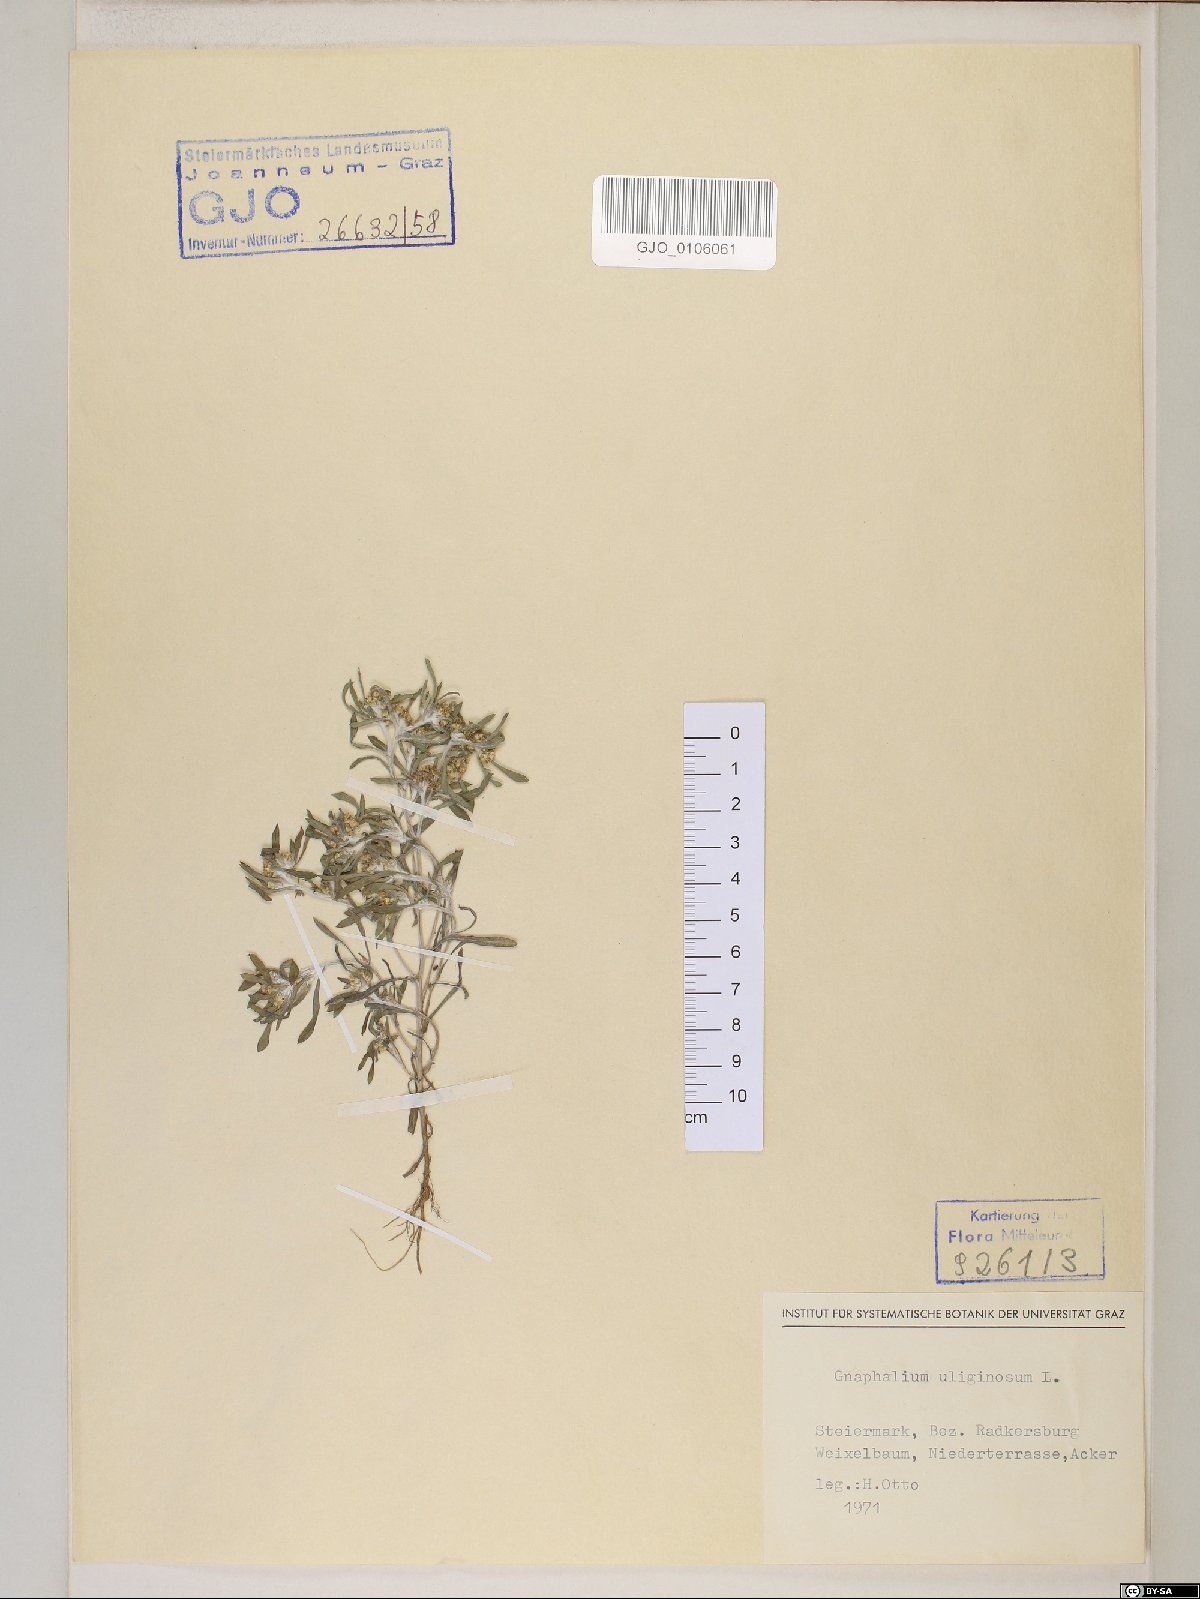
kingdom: Plantae
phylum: Tracheophyta
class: Magnoliopsida
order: Asterales
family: Asteraceae
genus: Gnaphalium
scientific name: Gnaphalium uliginosum
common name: Marsh cudweed
